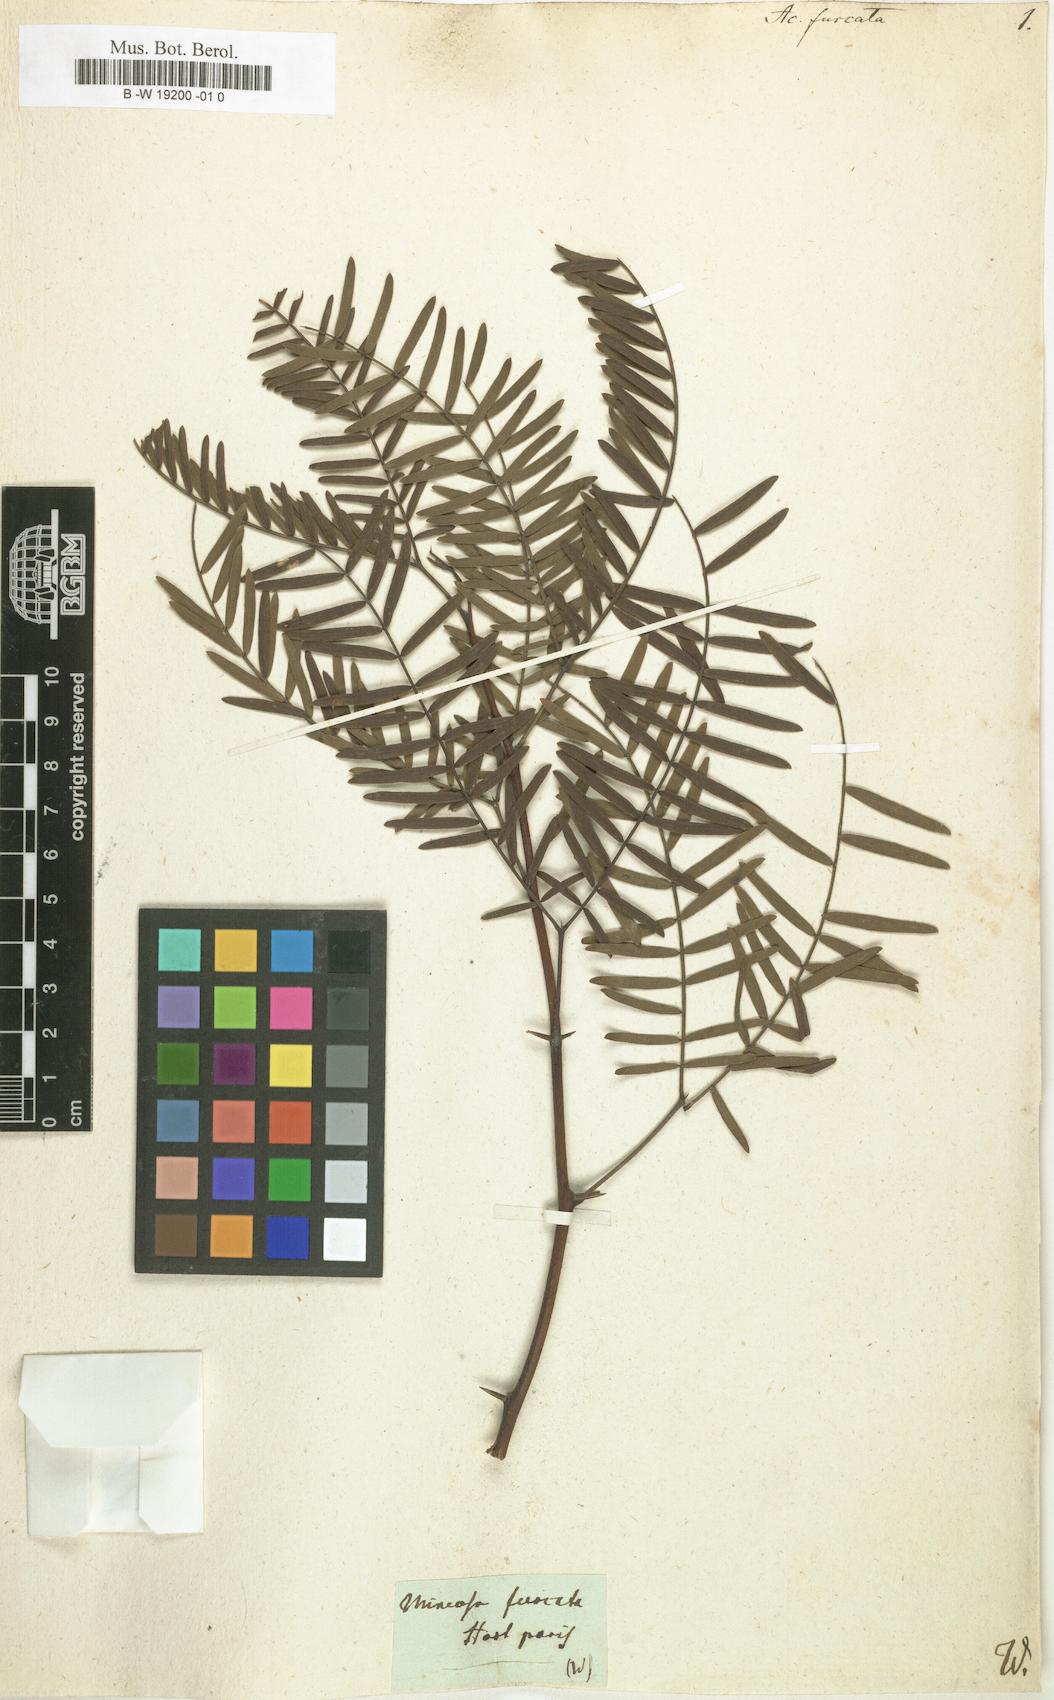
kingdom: Plantae
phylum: Tracheophyta
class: Magnoliopsida
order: Fabales
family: Fabaceae
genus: Prosopis
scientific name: Prosopis juliflora
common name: Mesquite
